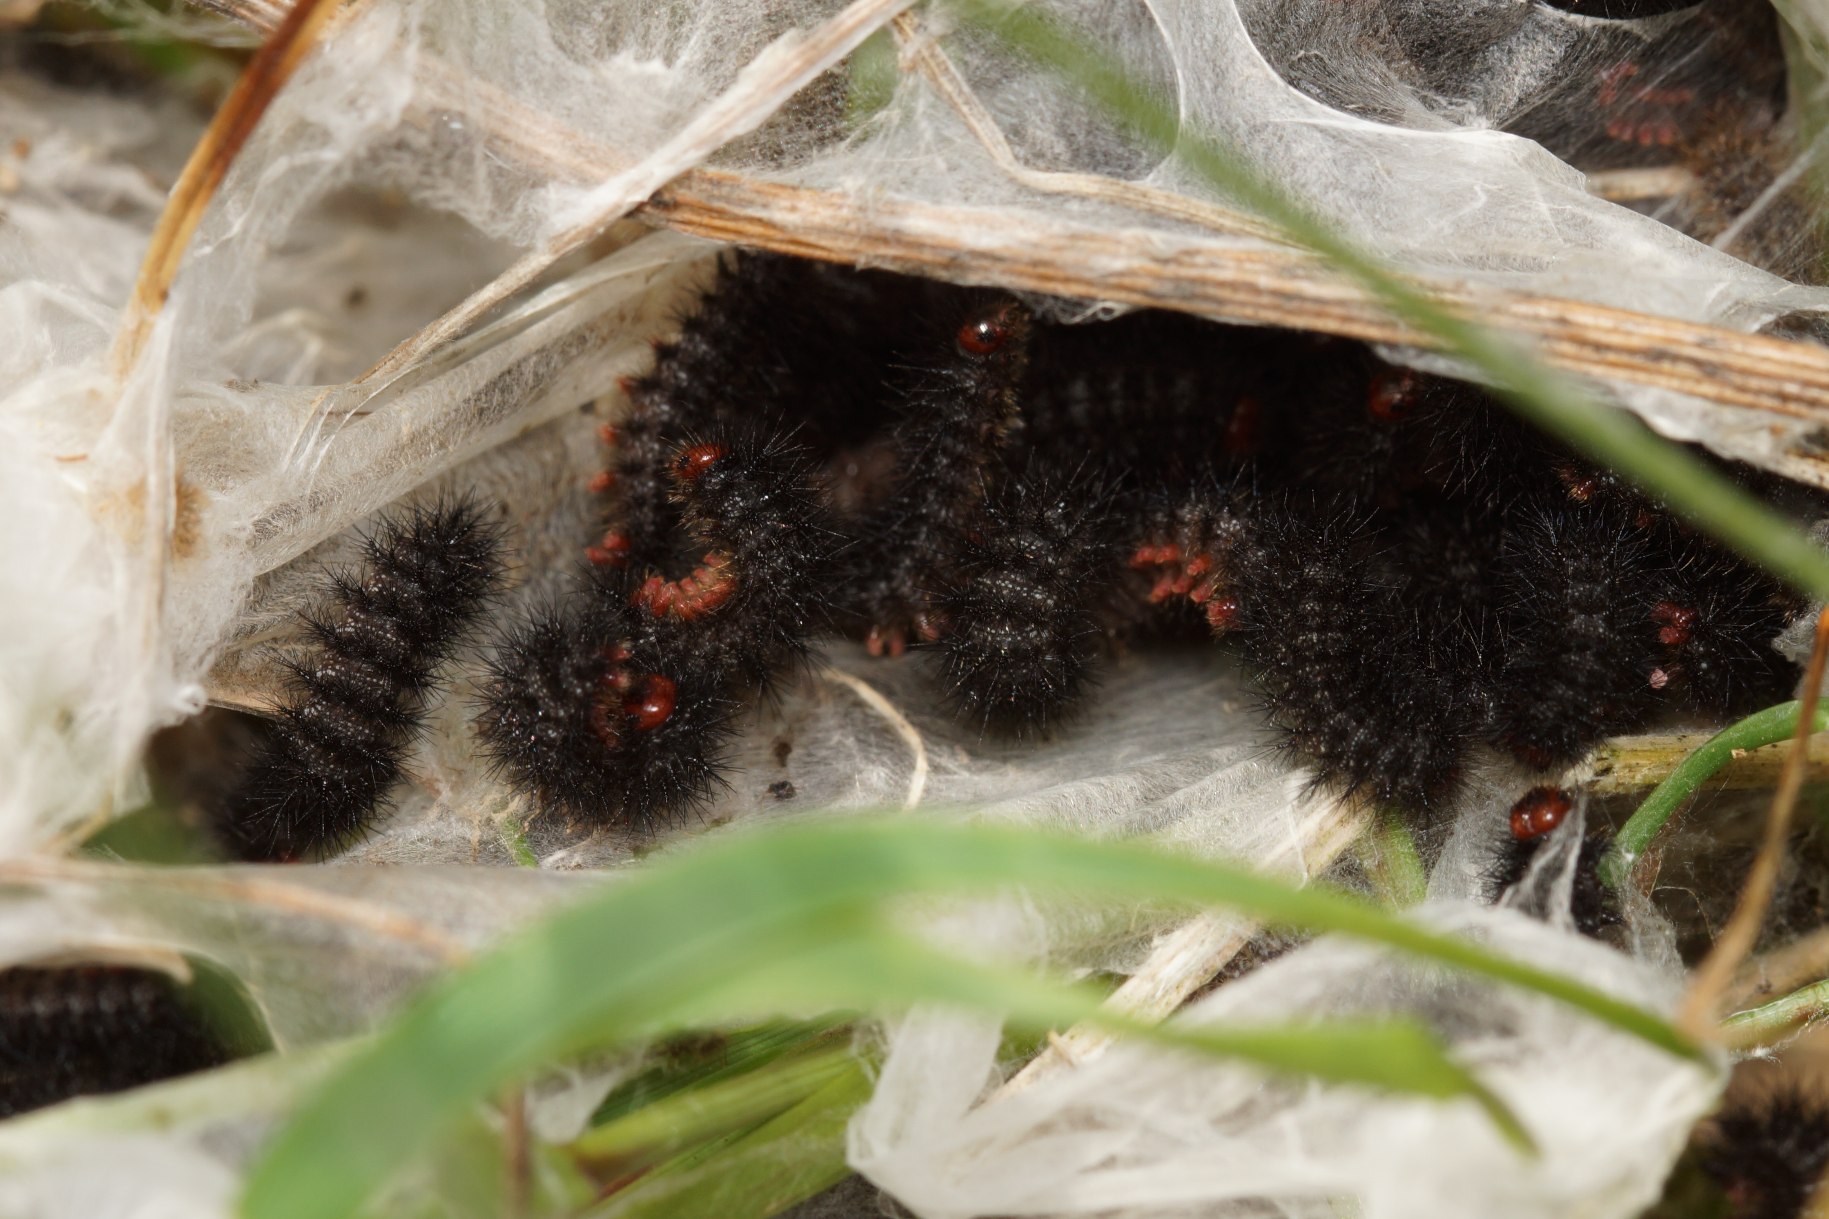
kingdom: Animalia
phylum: Arthropoda
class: Insecta
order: Lepidoptera
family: Nymphalidae
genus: Melitaea
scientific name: Melitaea cinxia
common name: Okkergul pletvinge
